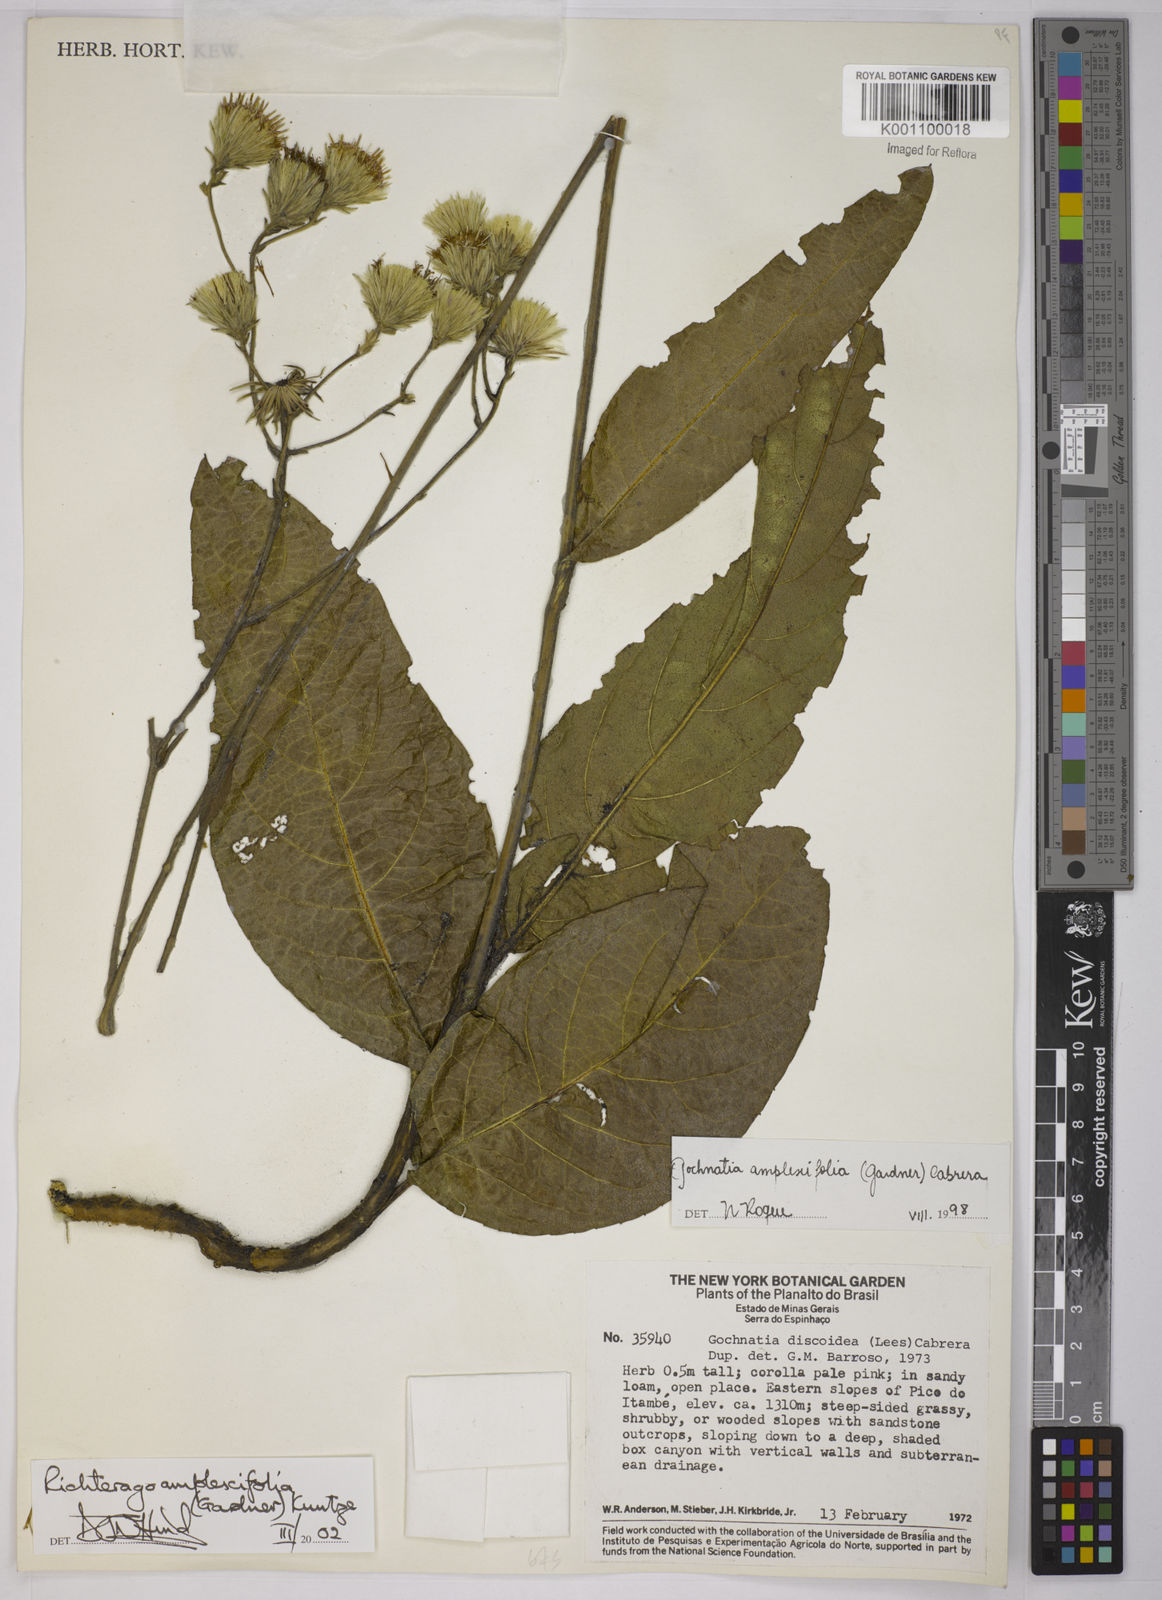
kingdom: Plantae
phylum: Tracheophyta
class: Magnoliopsida
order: Asterales
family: Asteraceae
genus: Richterago
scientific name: Richterago amplexifolia
